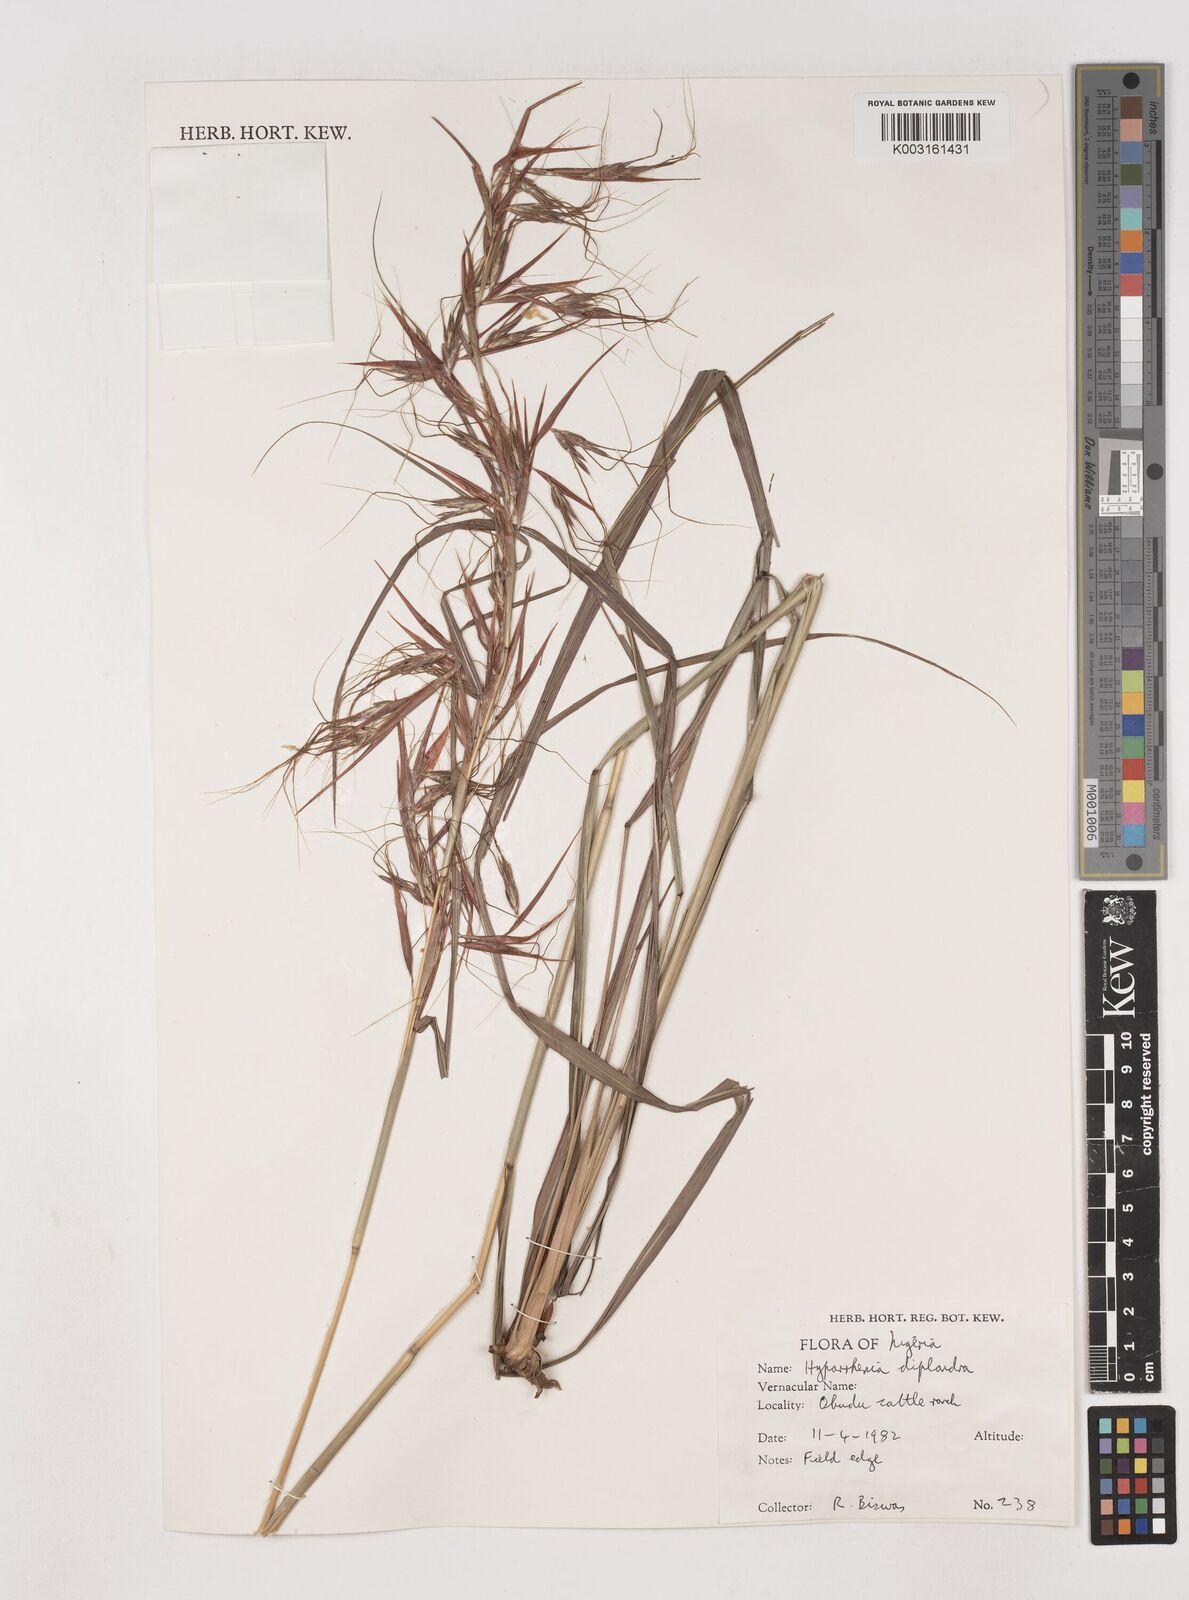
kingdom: Plantae
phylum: Tracheophyta
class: Liliopsida
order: Poales
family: Poaceae
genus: Hyparrhenia
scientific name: Hyparrhenia diplandra
